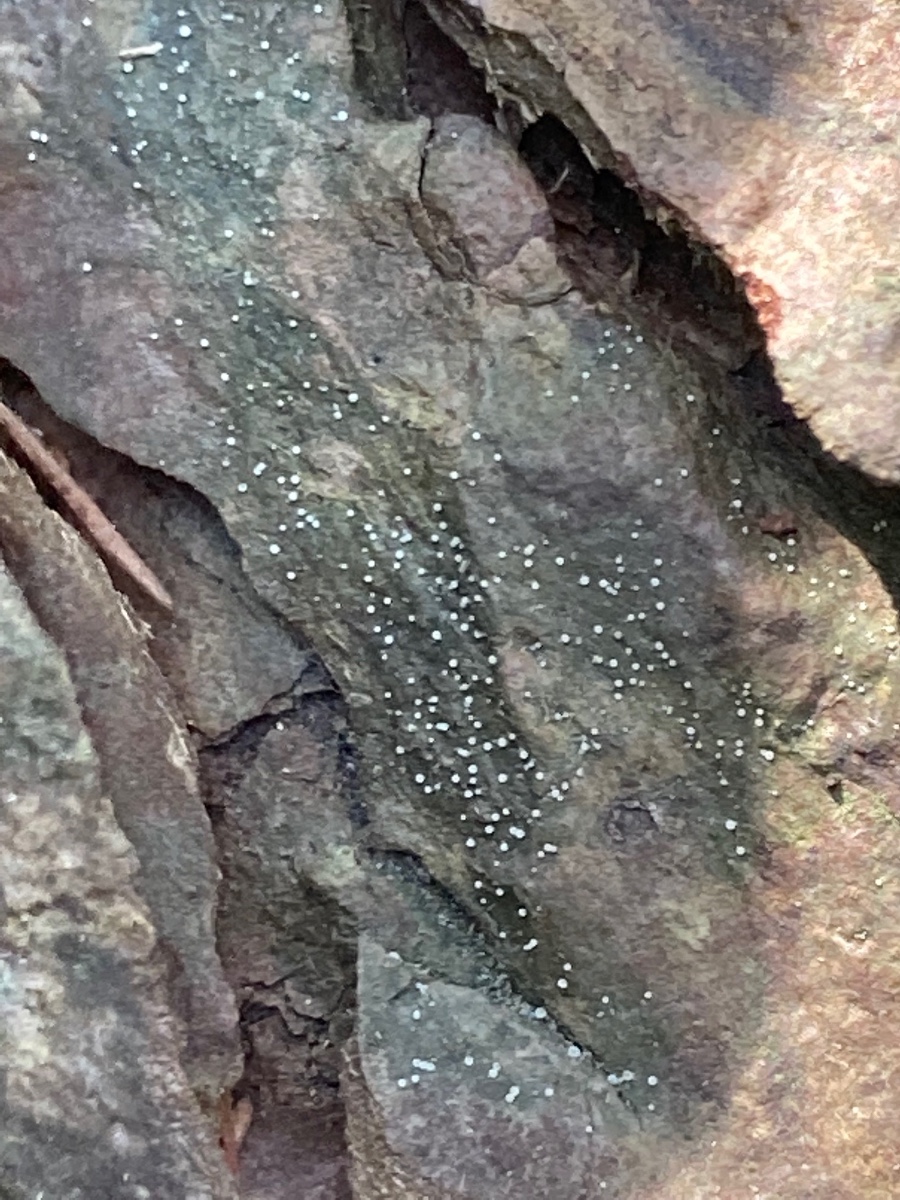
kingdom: Fungi
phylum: Ascomycota
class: Lecanoromycetes
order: Ostropales
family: Coenogoniaceae
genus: Coenogonium
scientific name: Coenogonium pineti
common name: liden vokslav
